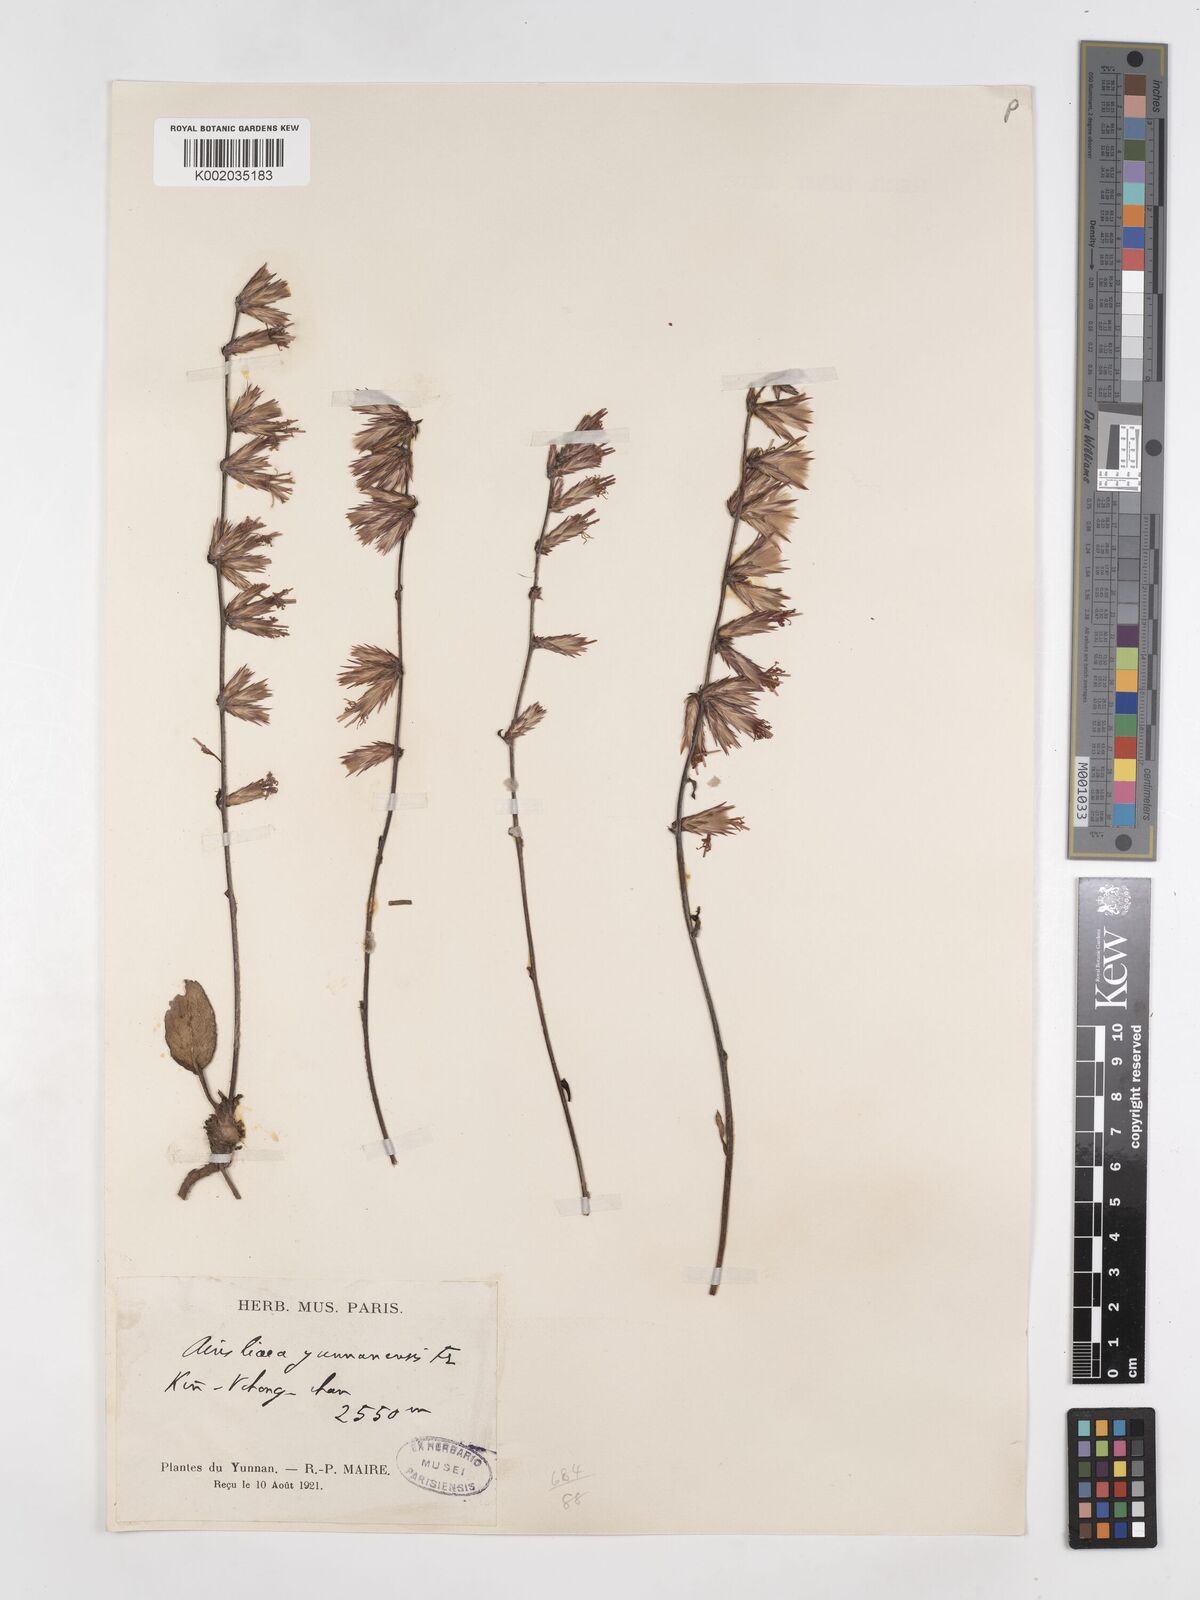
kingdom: Plantae
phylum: Tracheophyta
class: Magnoliopsida
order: Asterales
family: Asteraceae
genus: Ainsliaea
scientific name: Ainsliaea yunnanensis
